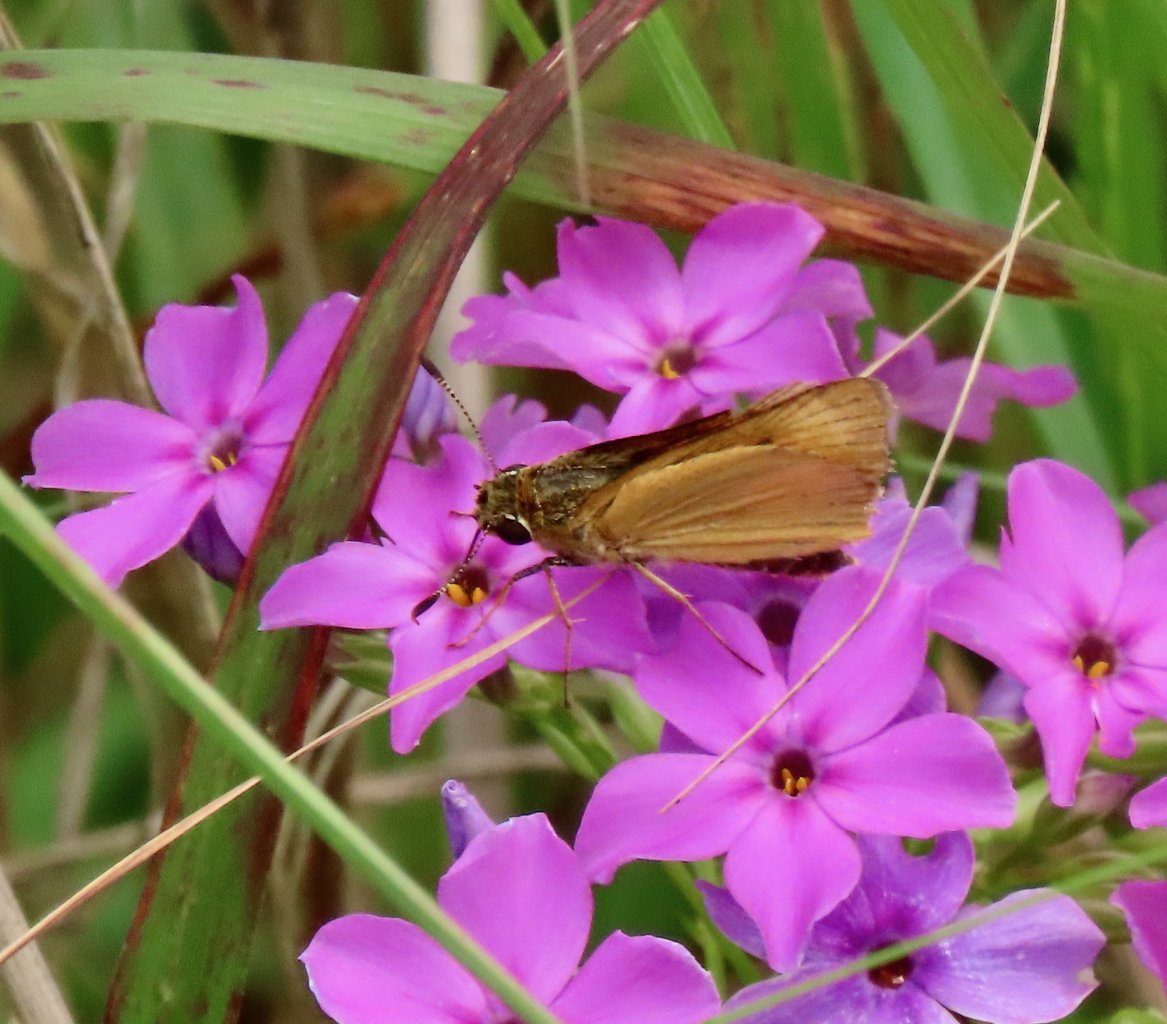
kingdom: Animalia
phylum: Arthropoda
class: Insecta
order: Lepidoptera
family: Hesperiidae
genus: Atrytone
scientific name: Atrytone delaware
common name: Delaware Skipper
